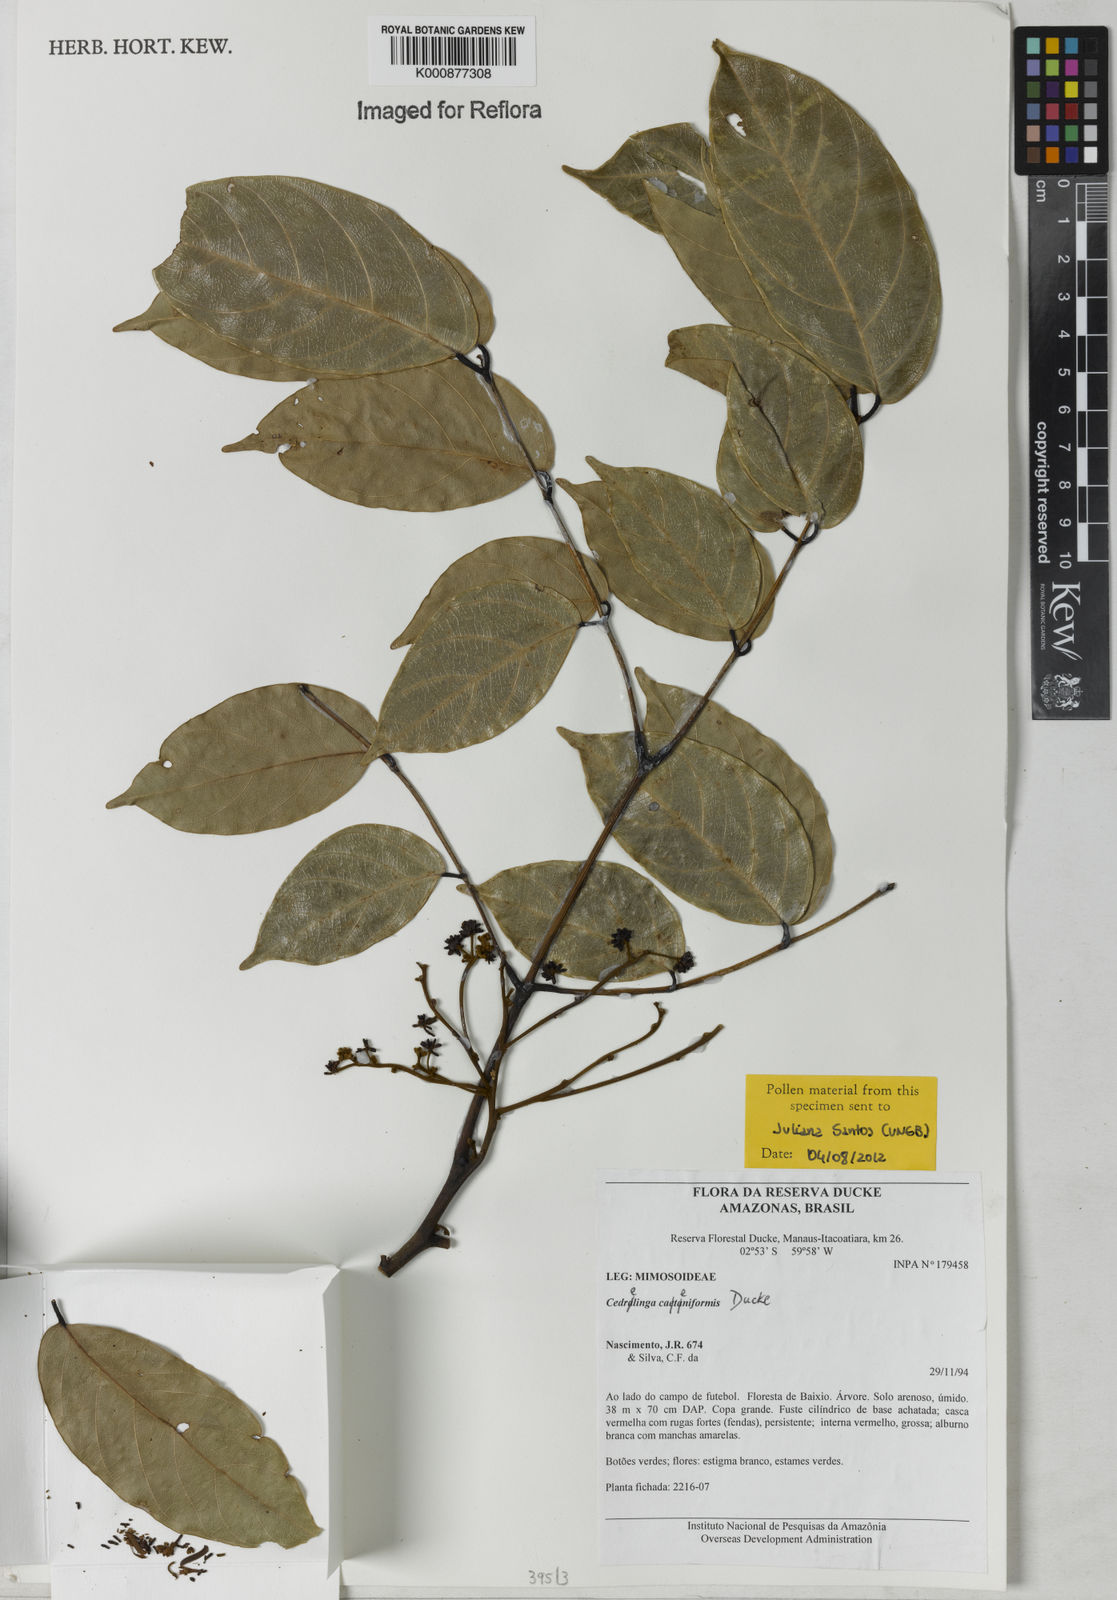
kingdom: Plantae
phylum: Tracheophyta
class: Magnoliopsida
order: Fabales
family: Fabaceae
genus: Cedrelinga
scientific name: Cedrelinga cateniformis
